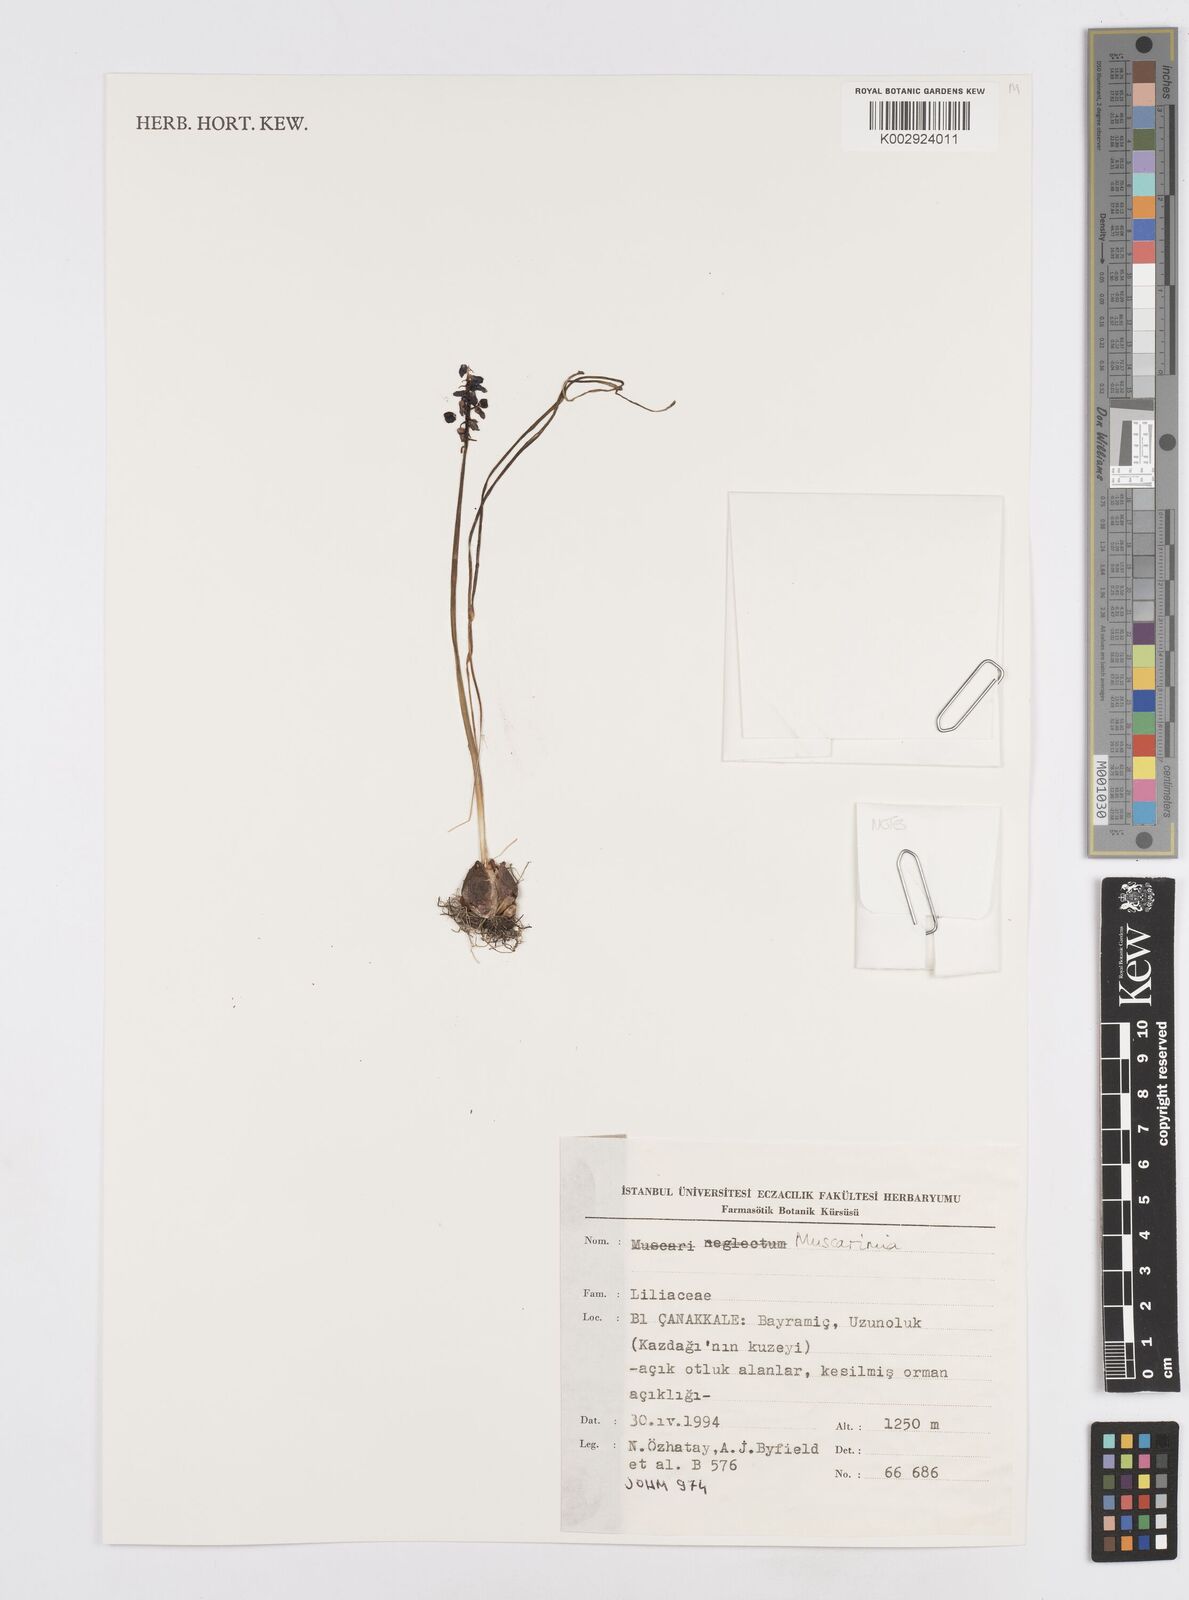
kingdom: Plantae
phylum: Tracheophyta
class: Liliopsida
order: Asparagales
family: Asparagaceae
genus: Muscari
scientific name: Muscari
